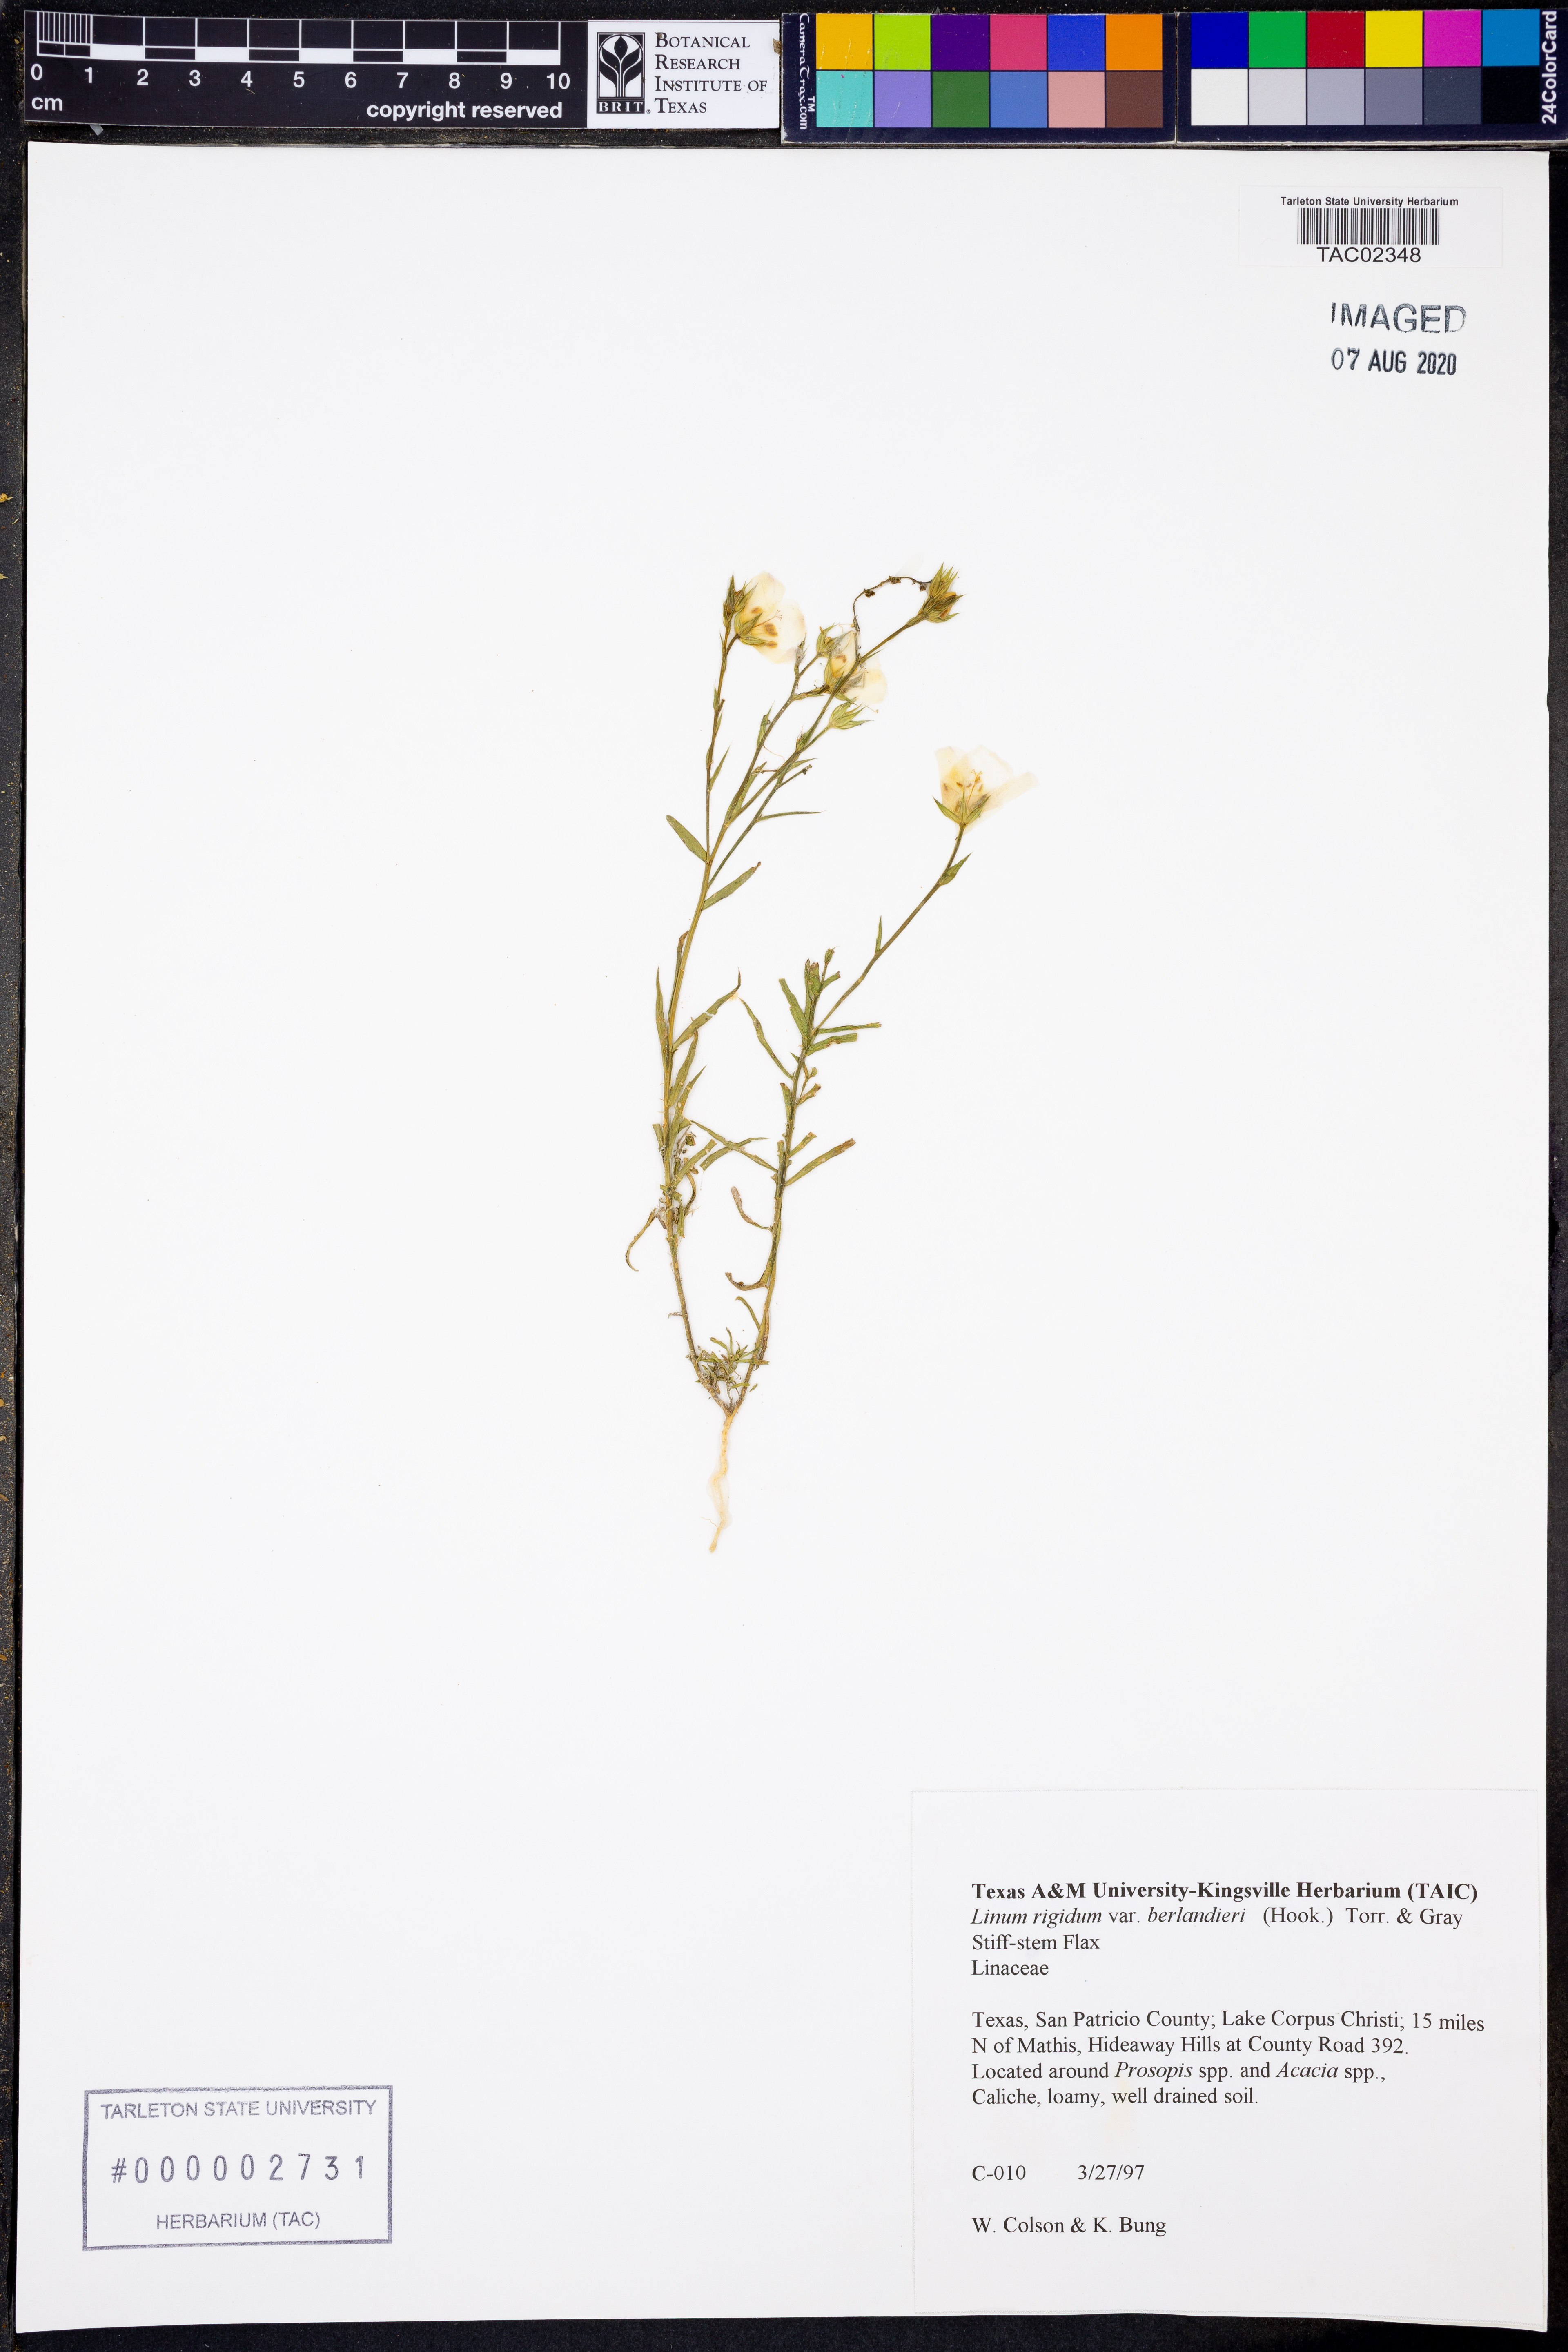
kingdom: Plantae
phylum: Tracheophyta
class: Magnoliopsida
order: Malpighiales
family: Linaceae
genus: Linum
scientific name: Linum berlandieri
